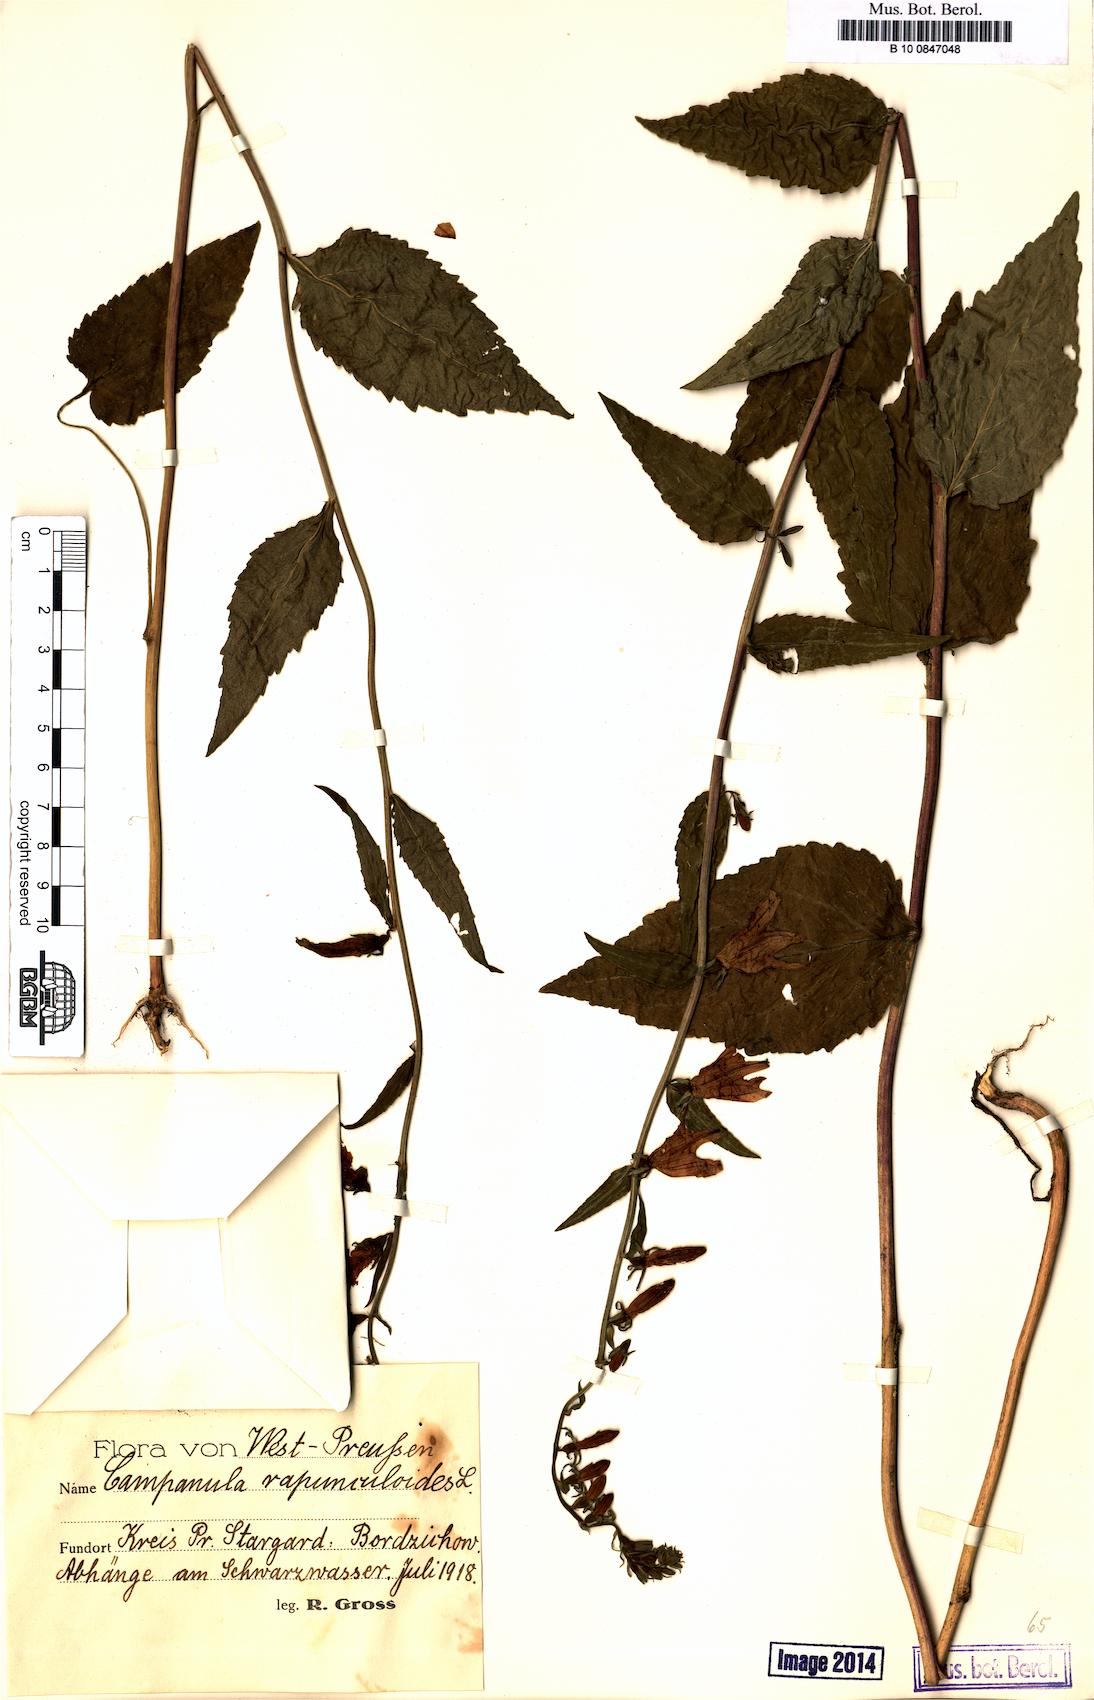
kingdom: Plantae
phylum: Tracheophyta
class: Magnoliopsida
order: Asterales
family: Campanulaceae
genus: Campanula
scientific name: Campanula rapunculoides
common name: Creeping bellflower
